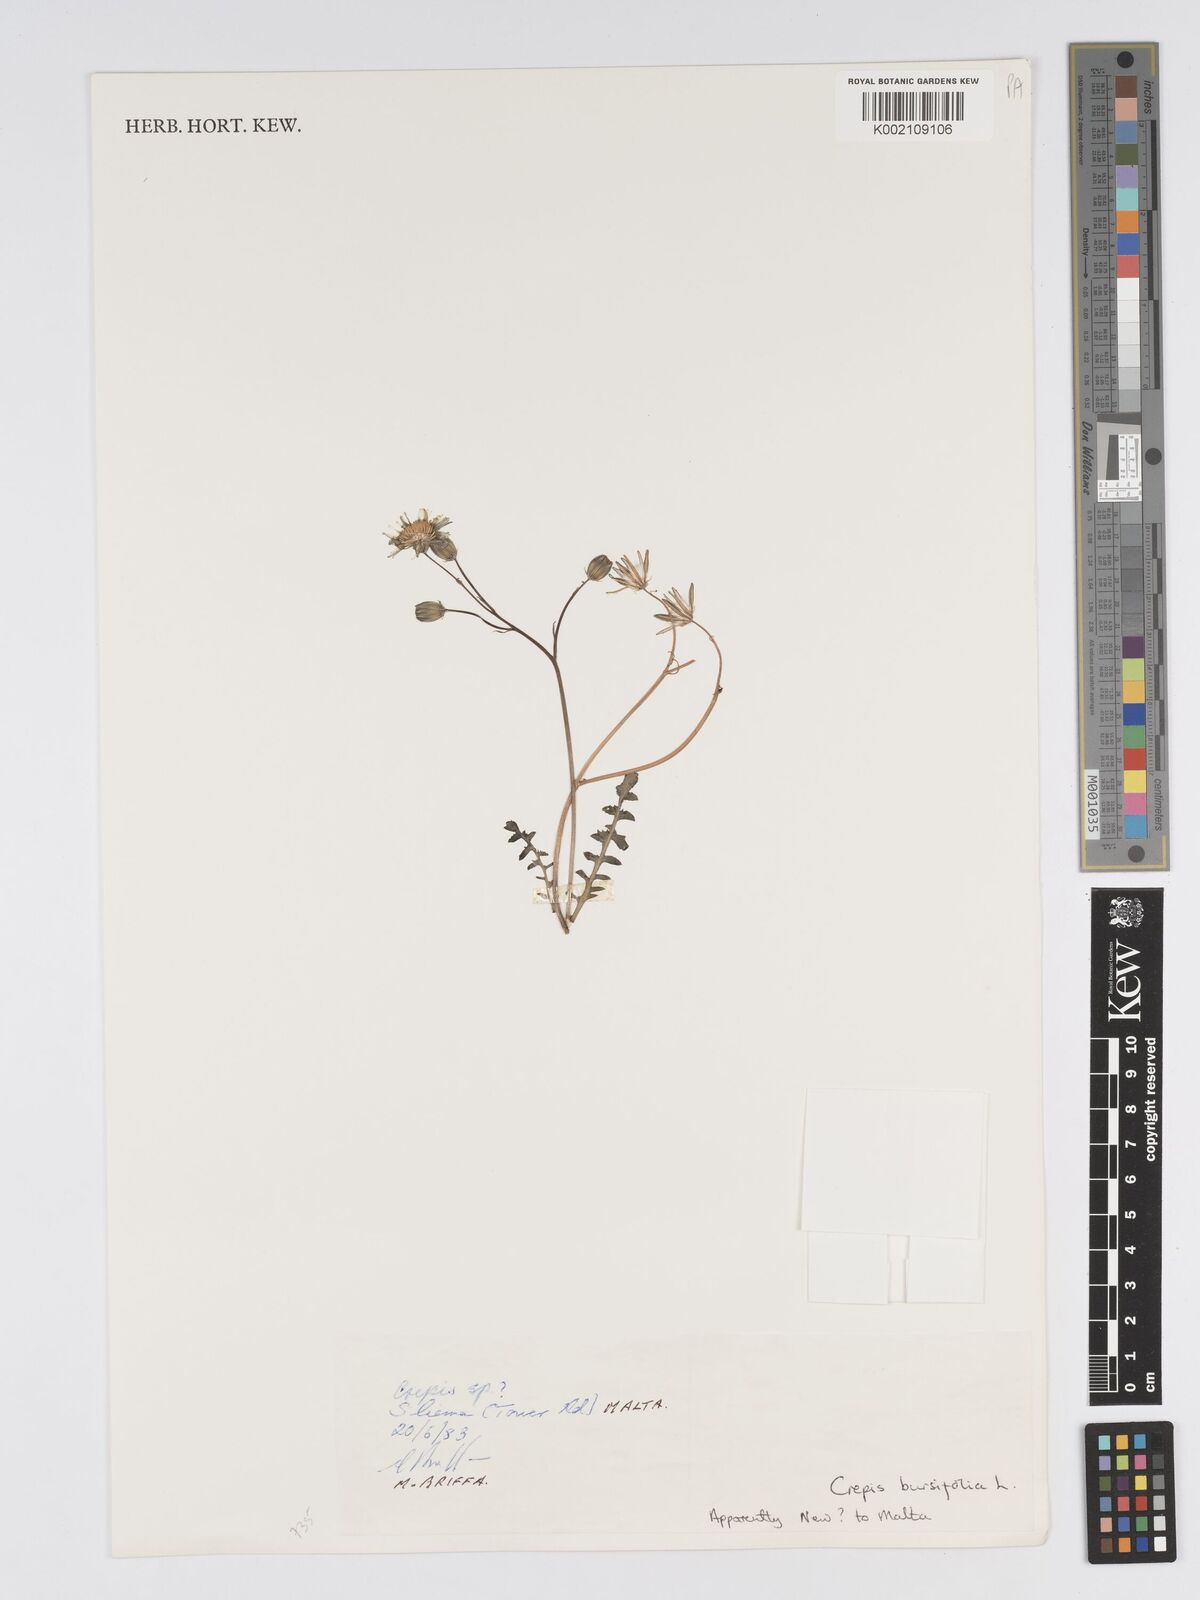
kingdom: Plantae
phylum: Tracheophyta
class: Magnoliopsida
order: Asterales
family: Asteraceae
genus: Crepis
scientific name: Crepis bursifolia
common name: Italian hawksbeard
